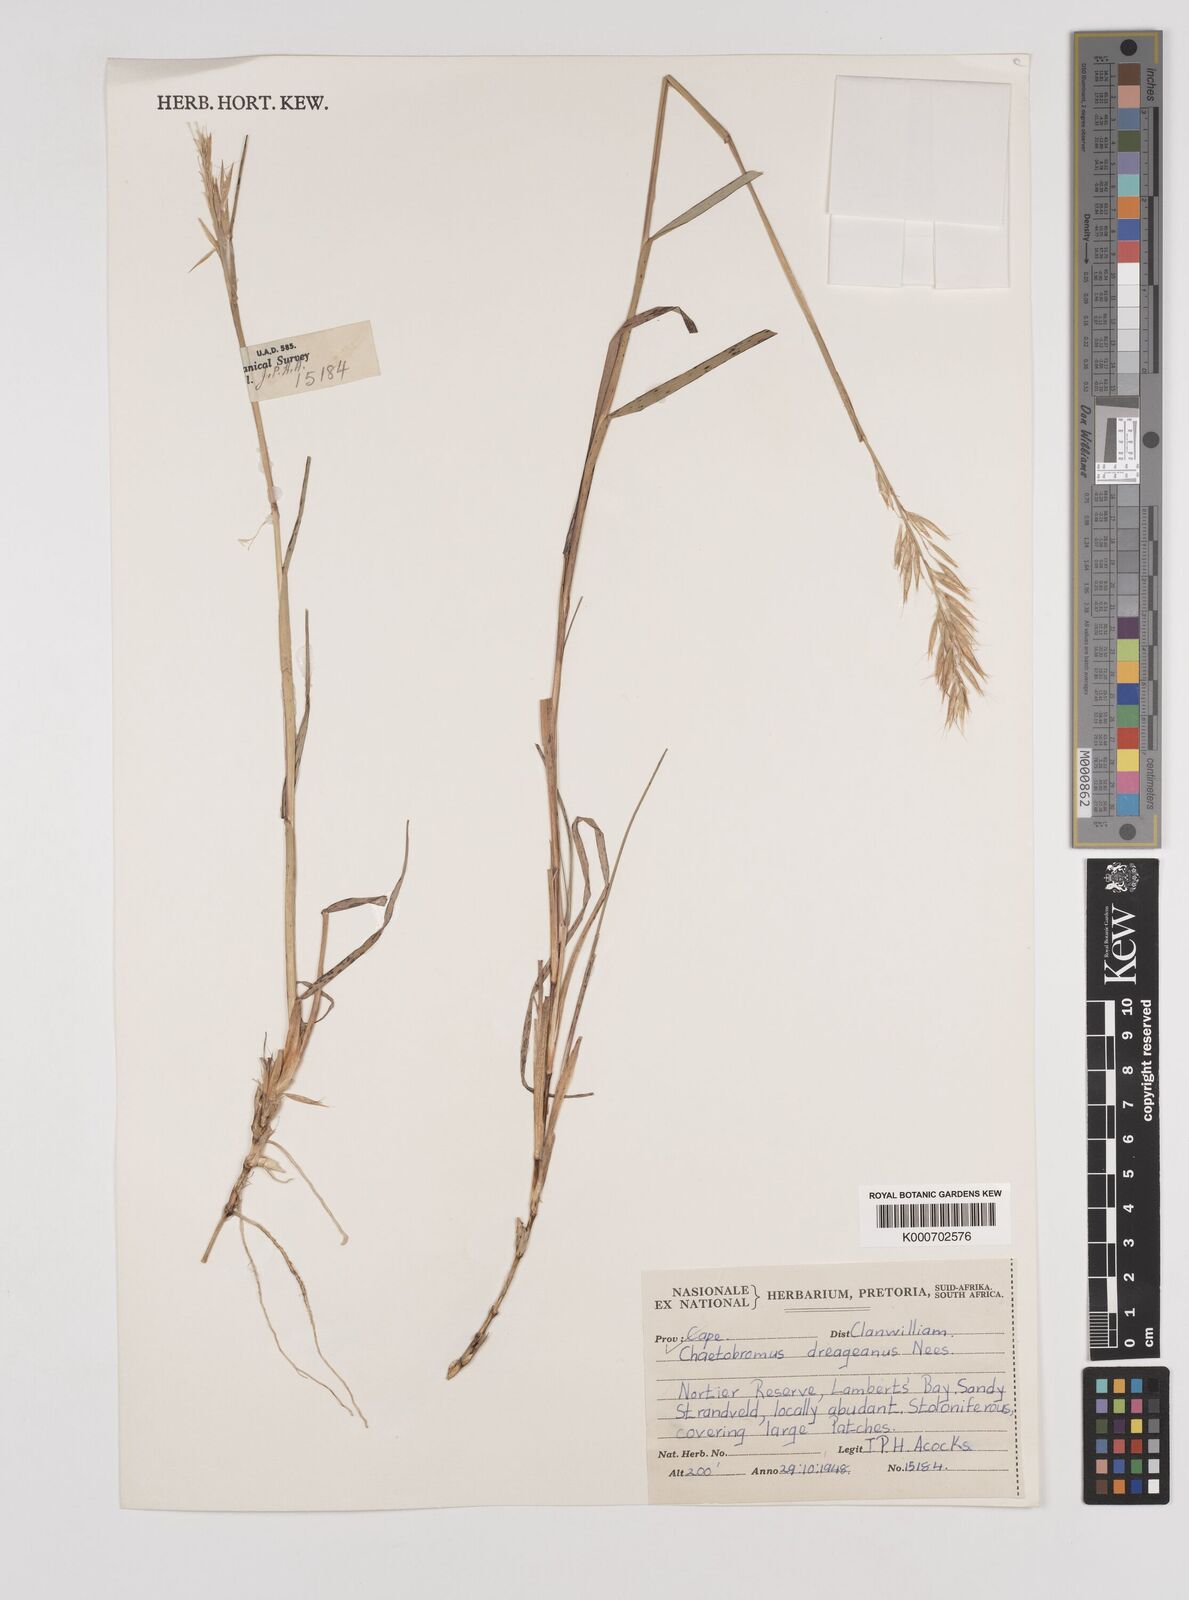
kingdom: Plantae
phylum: Tracheophyta
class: Liliopsida
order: Poales
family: Poaceae
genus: Chaetobromus
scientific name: Chaetobromus involucratus
